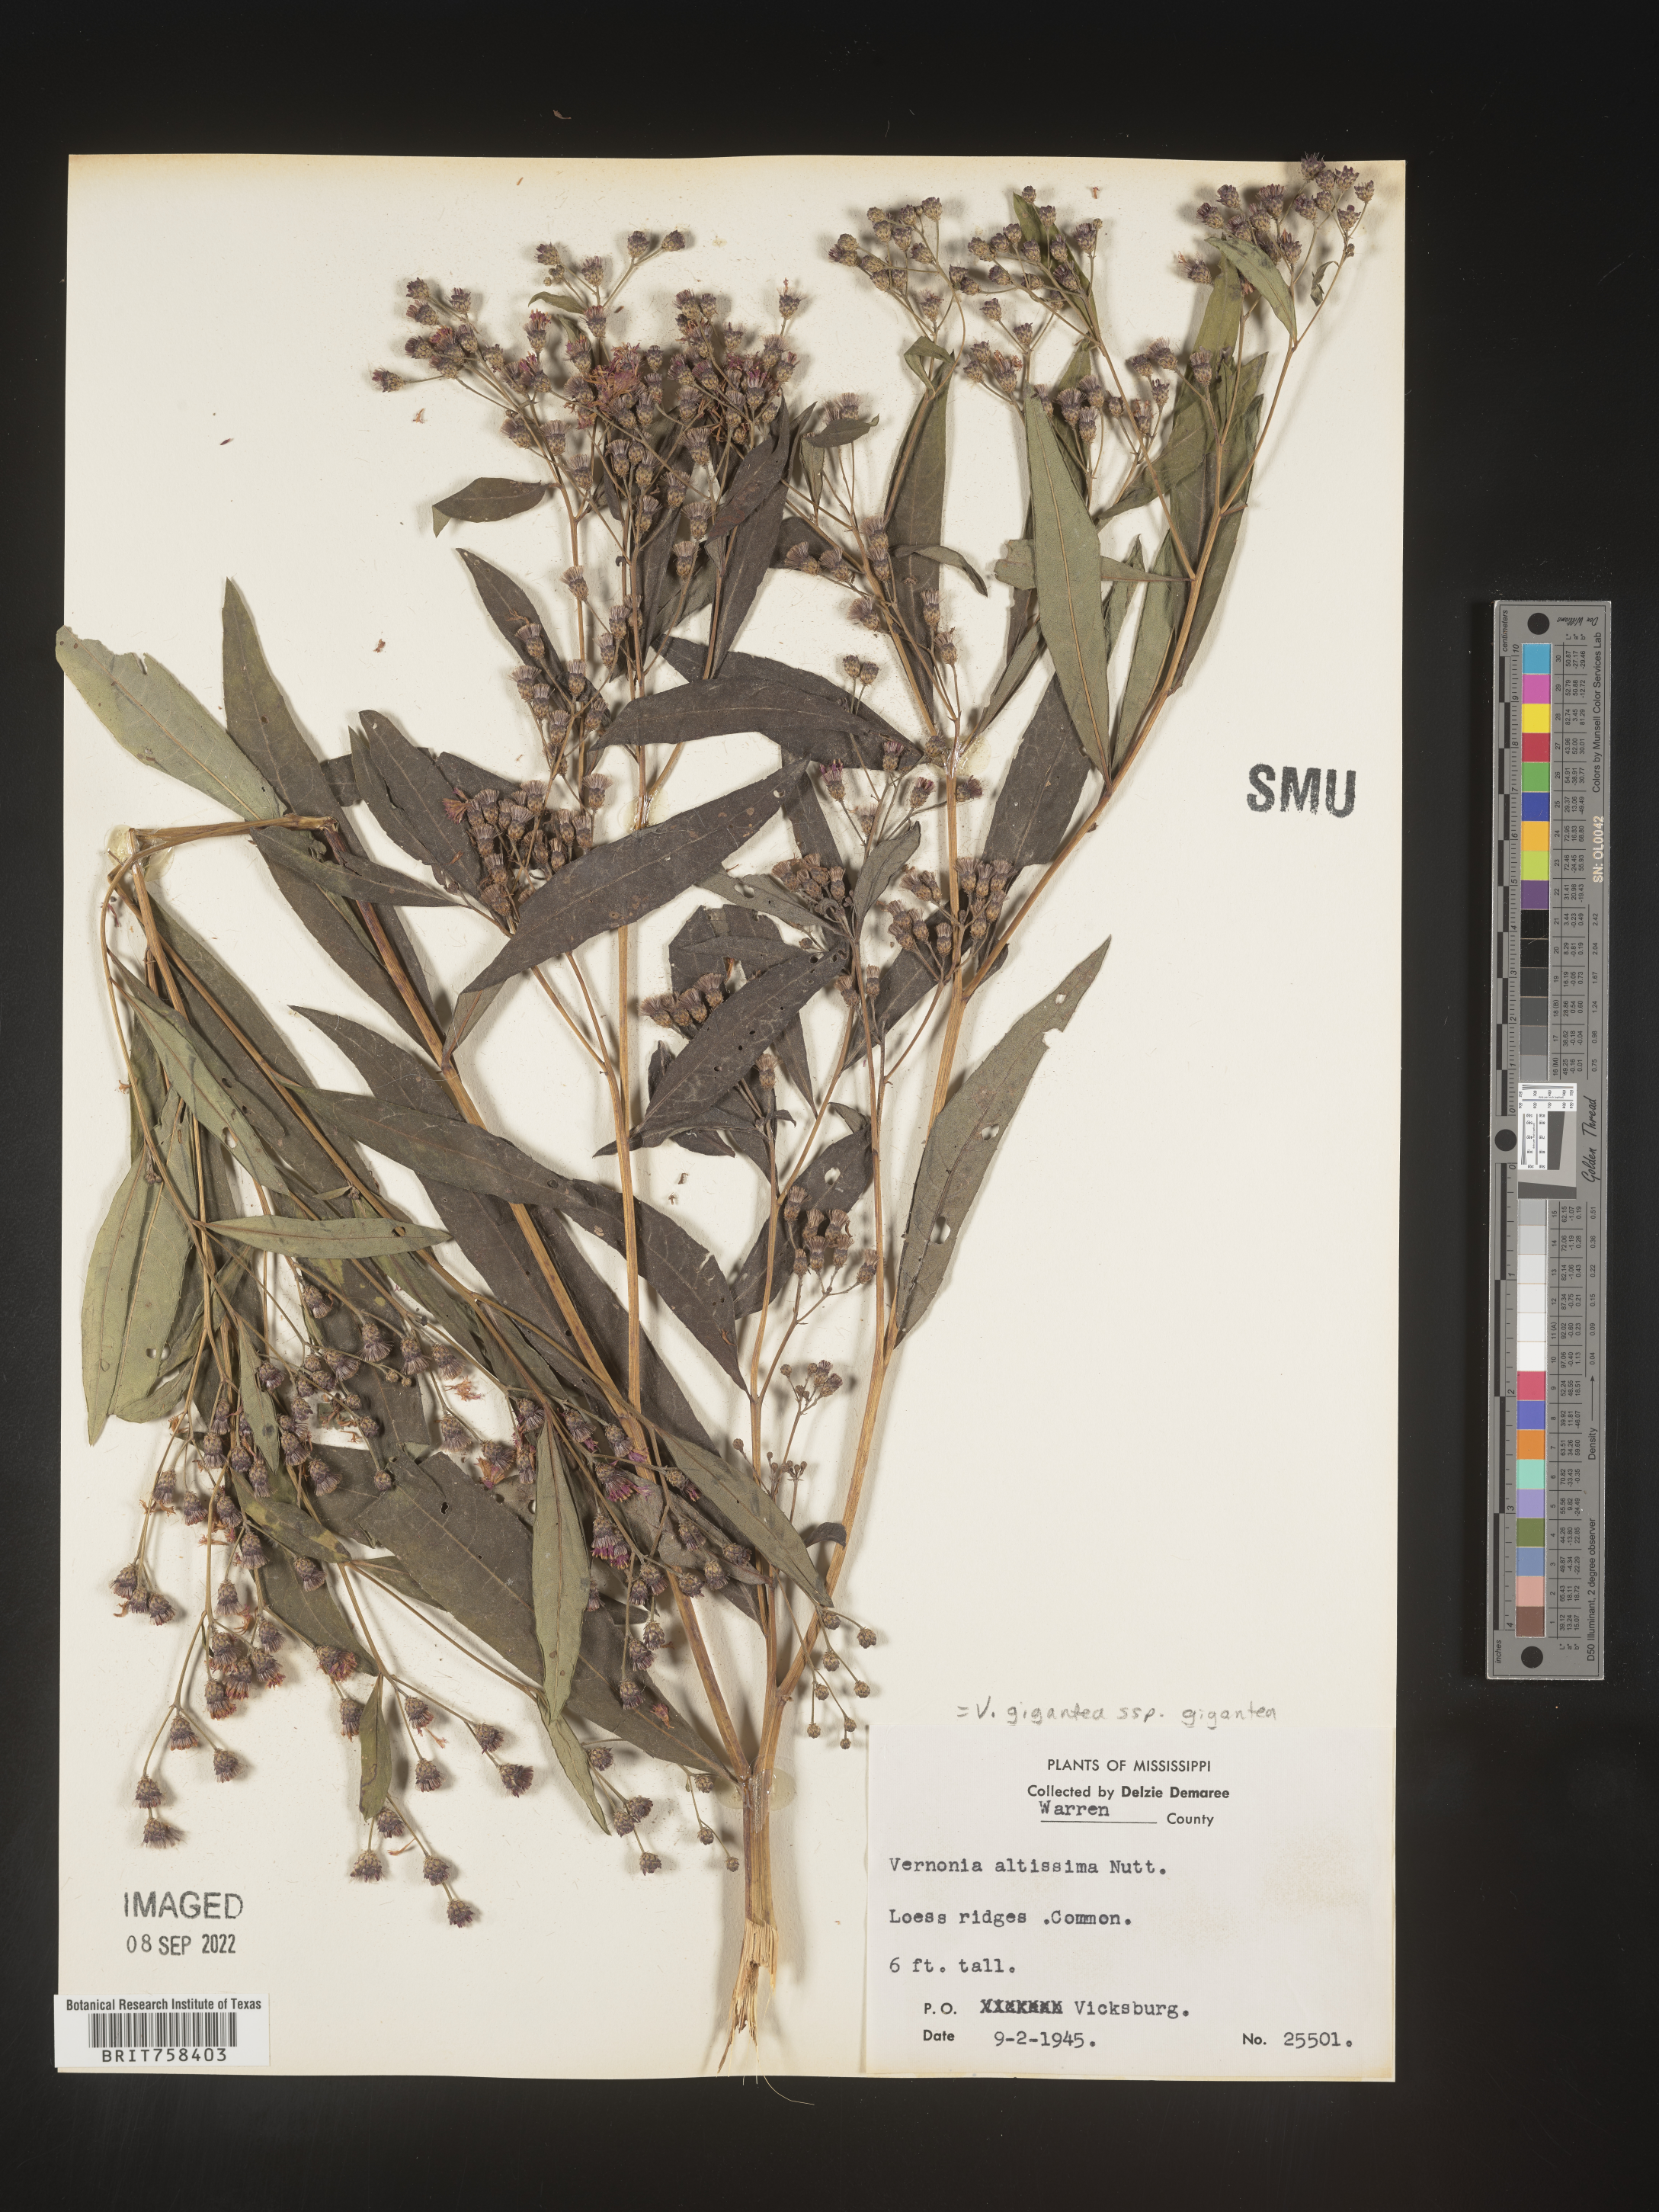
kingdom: Plantae
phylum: Tracheophyta
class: Magnoliopsida
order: Asterales
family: Asteraceae
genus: Vernonia
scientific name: Vernonia gigantea
